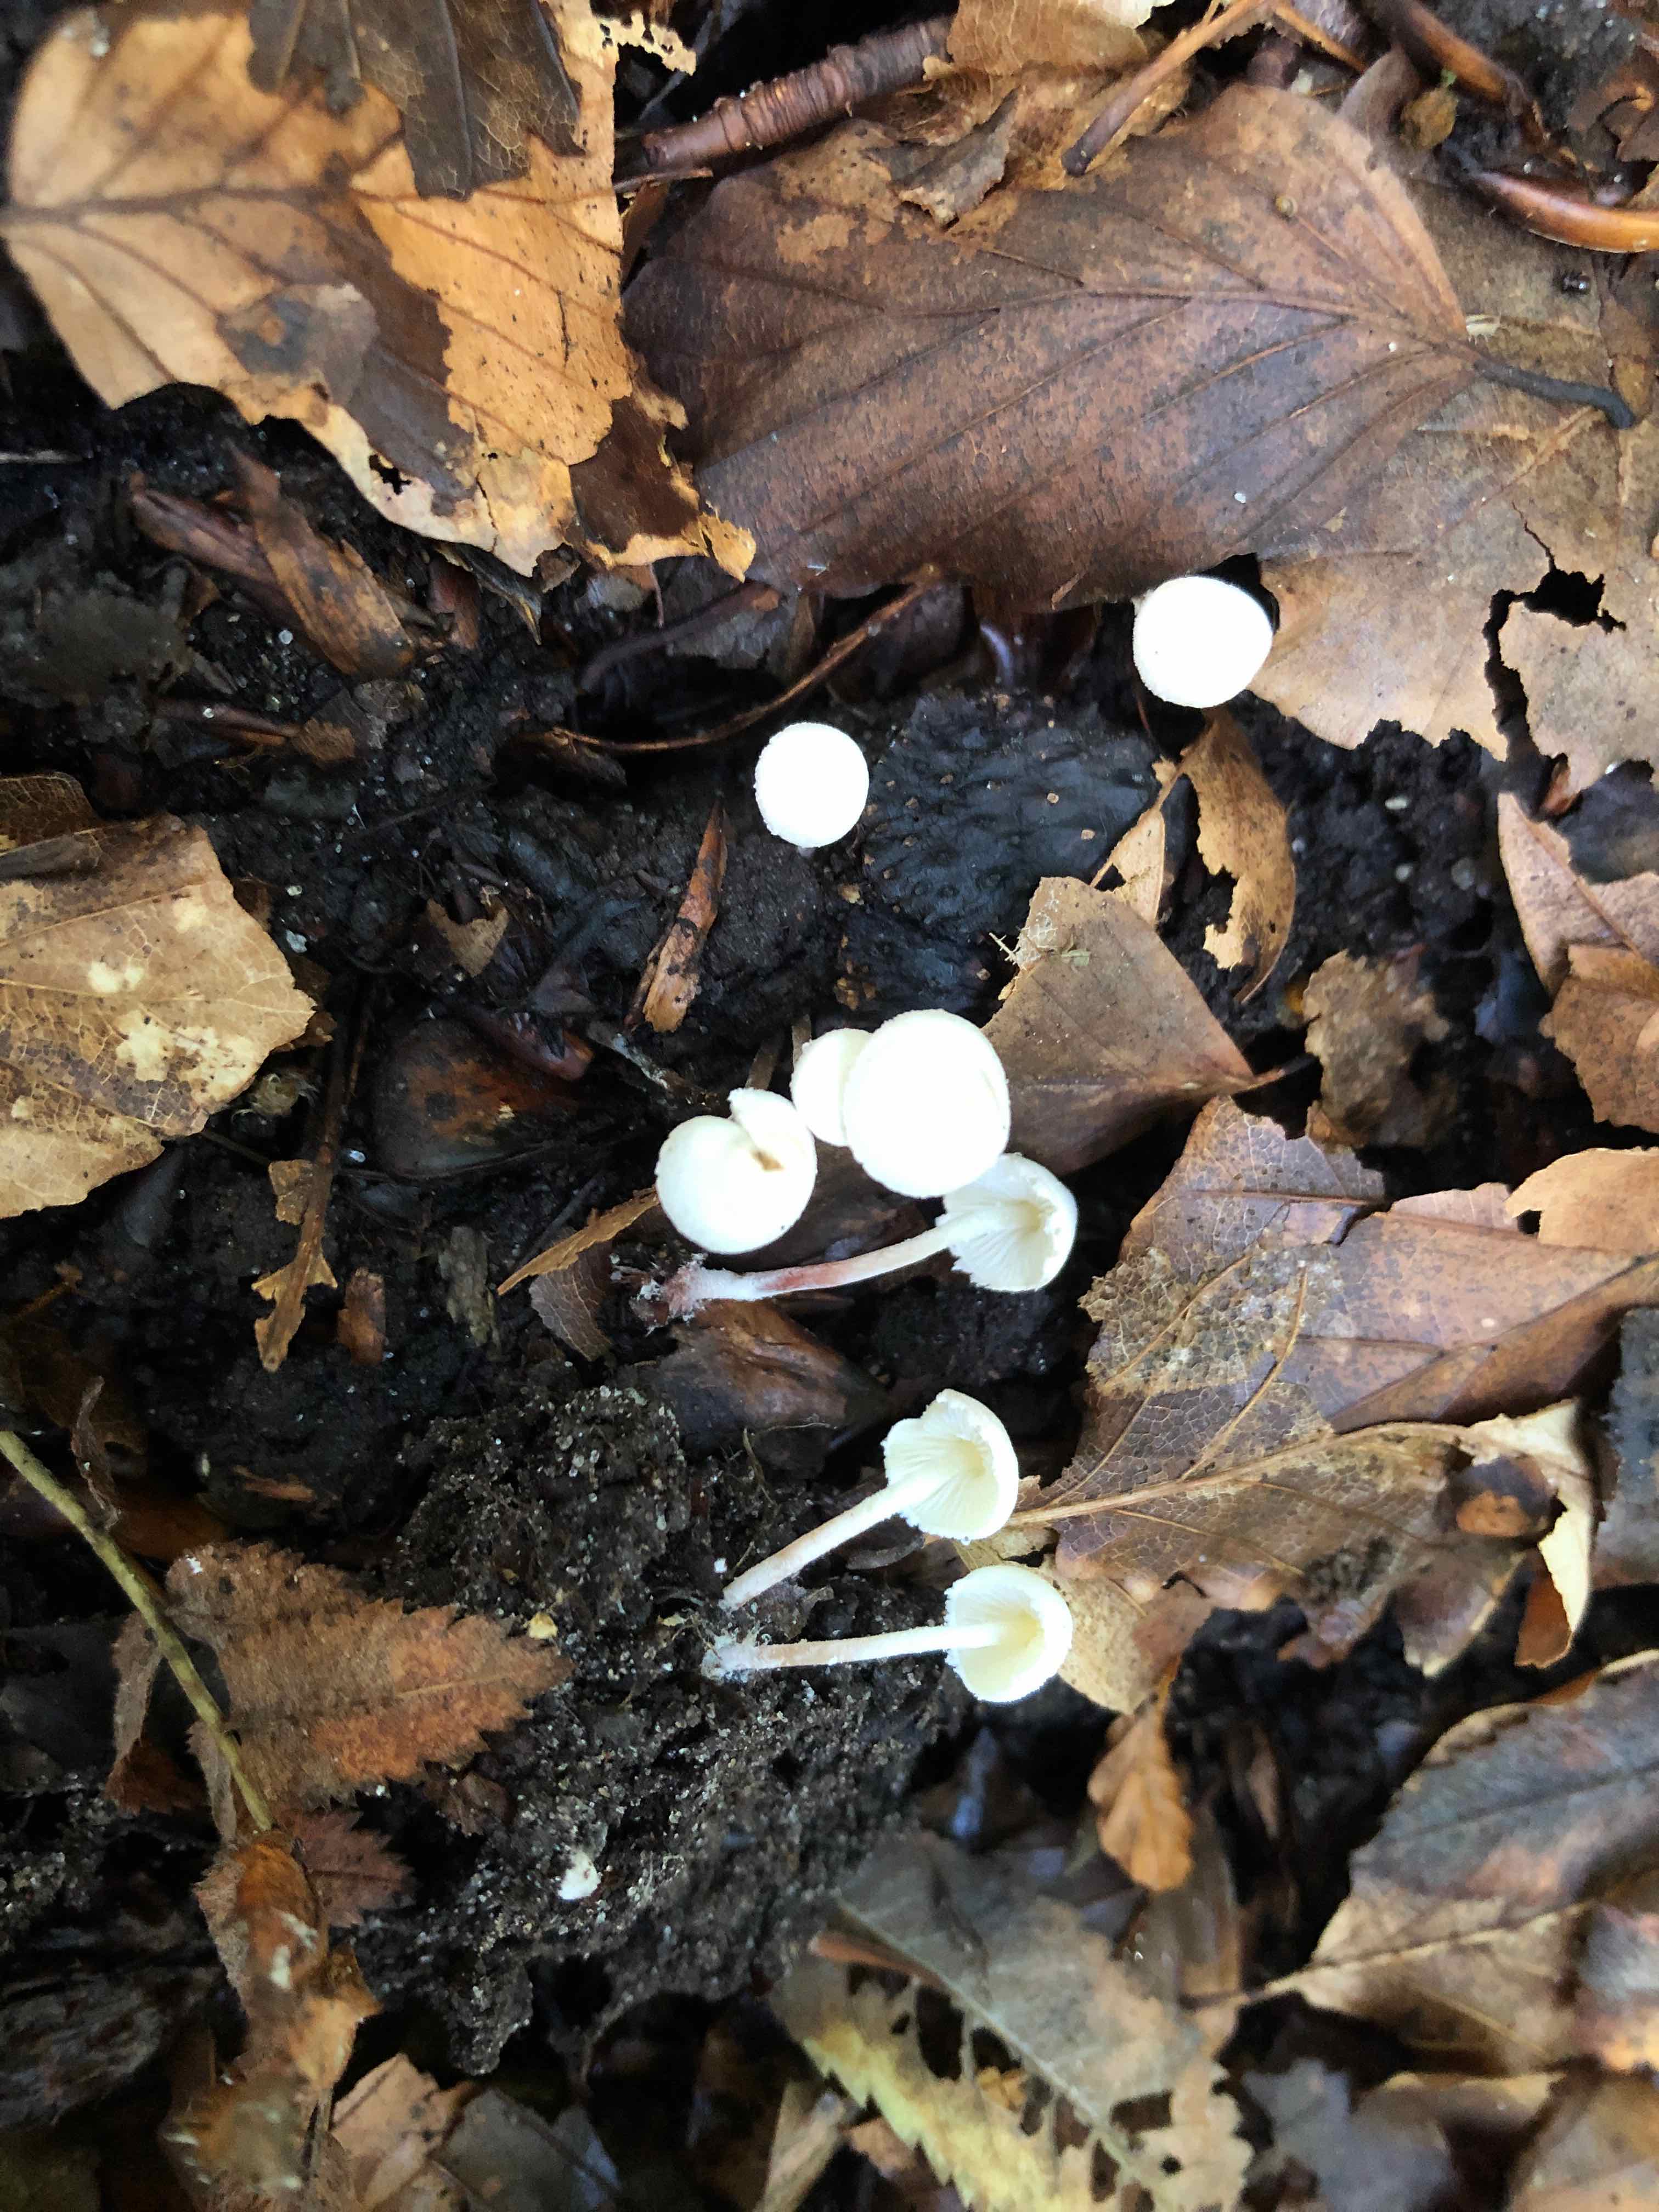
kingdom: Fungi
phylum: Basidiomycota
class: Agaricomycetes
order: Agaricales
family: Agaricaceae
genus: Cystolepiota
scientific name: Cystolepiota seminuda
